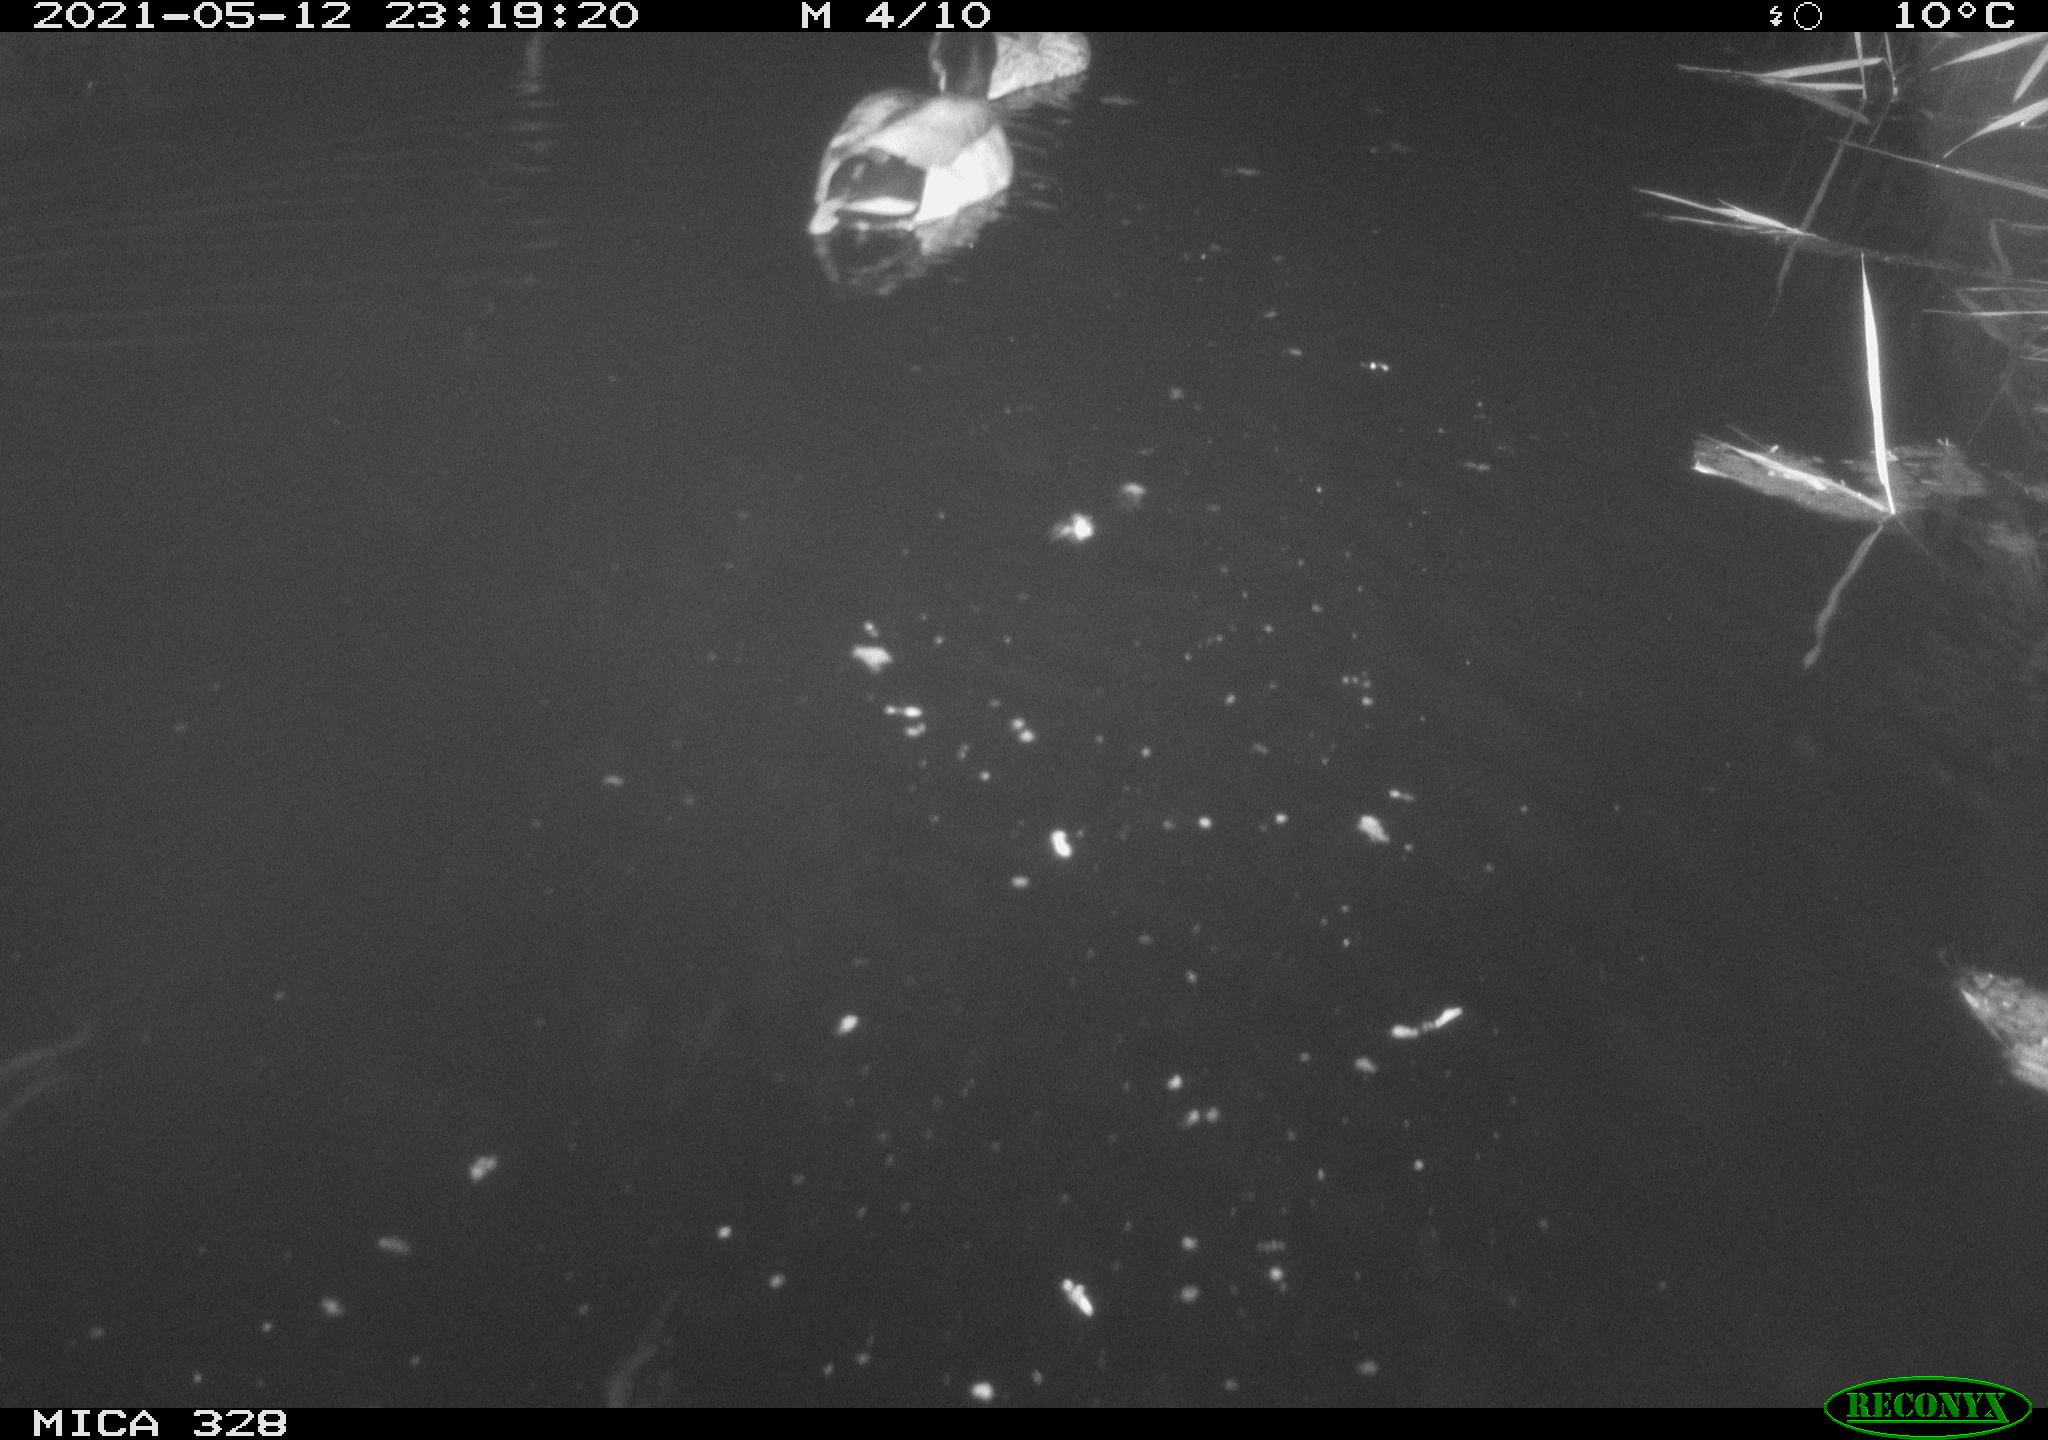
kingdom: Animalia
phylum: Chordata
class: Aves
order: Anseriformes
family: Anatidae
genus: Anas
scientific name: Anas platyrhynchos
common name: Mallard
